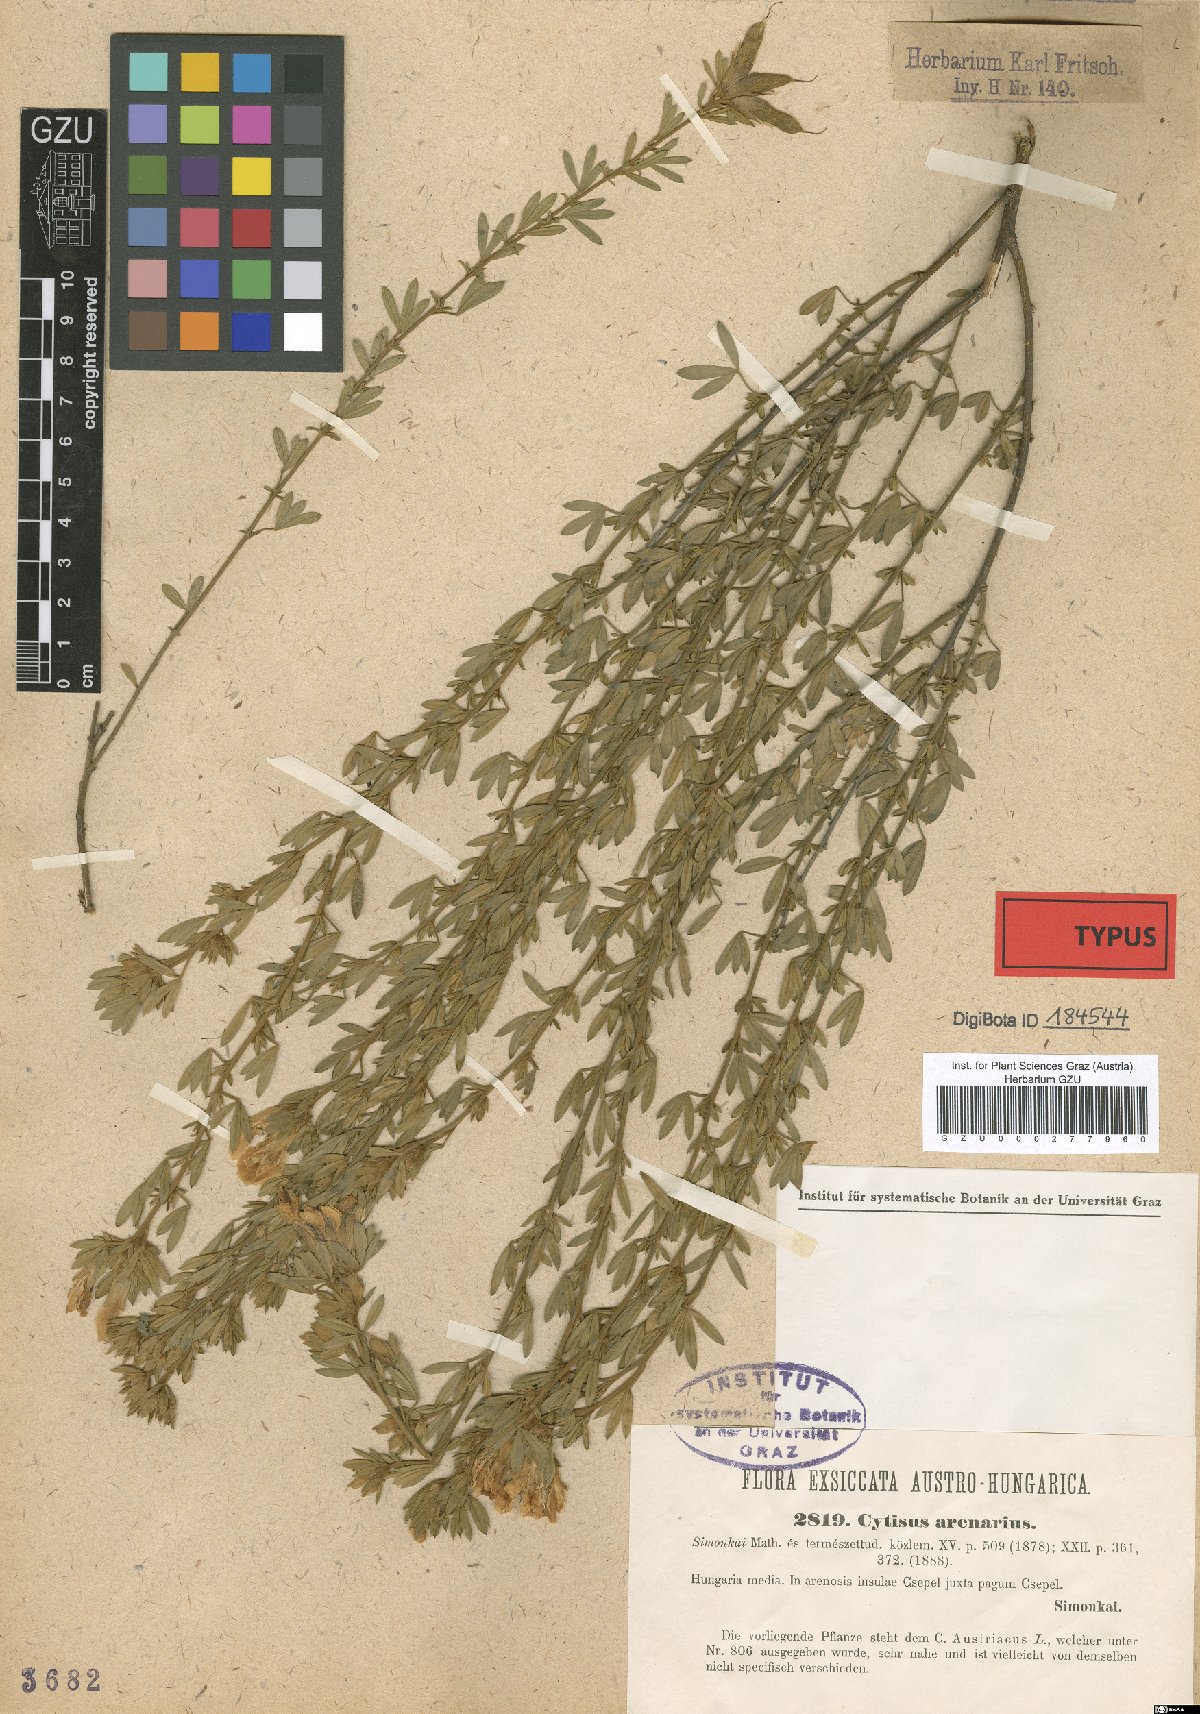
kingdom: Plantae
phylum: Tracheophyta
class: Magnoliopsida
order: Fabales
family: Fabaceae
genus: Chamaecytisus
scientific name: Chamaecytisus supinus
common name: Clustered broom
